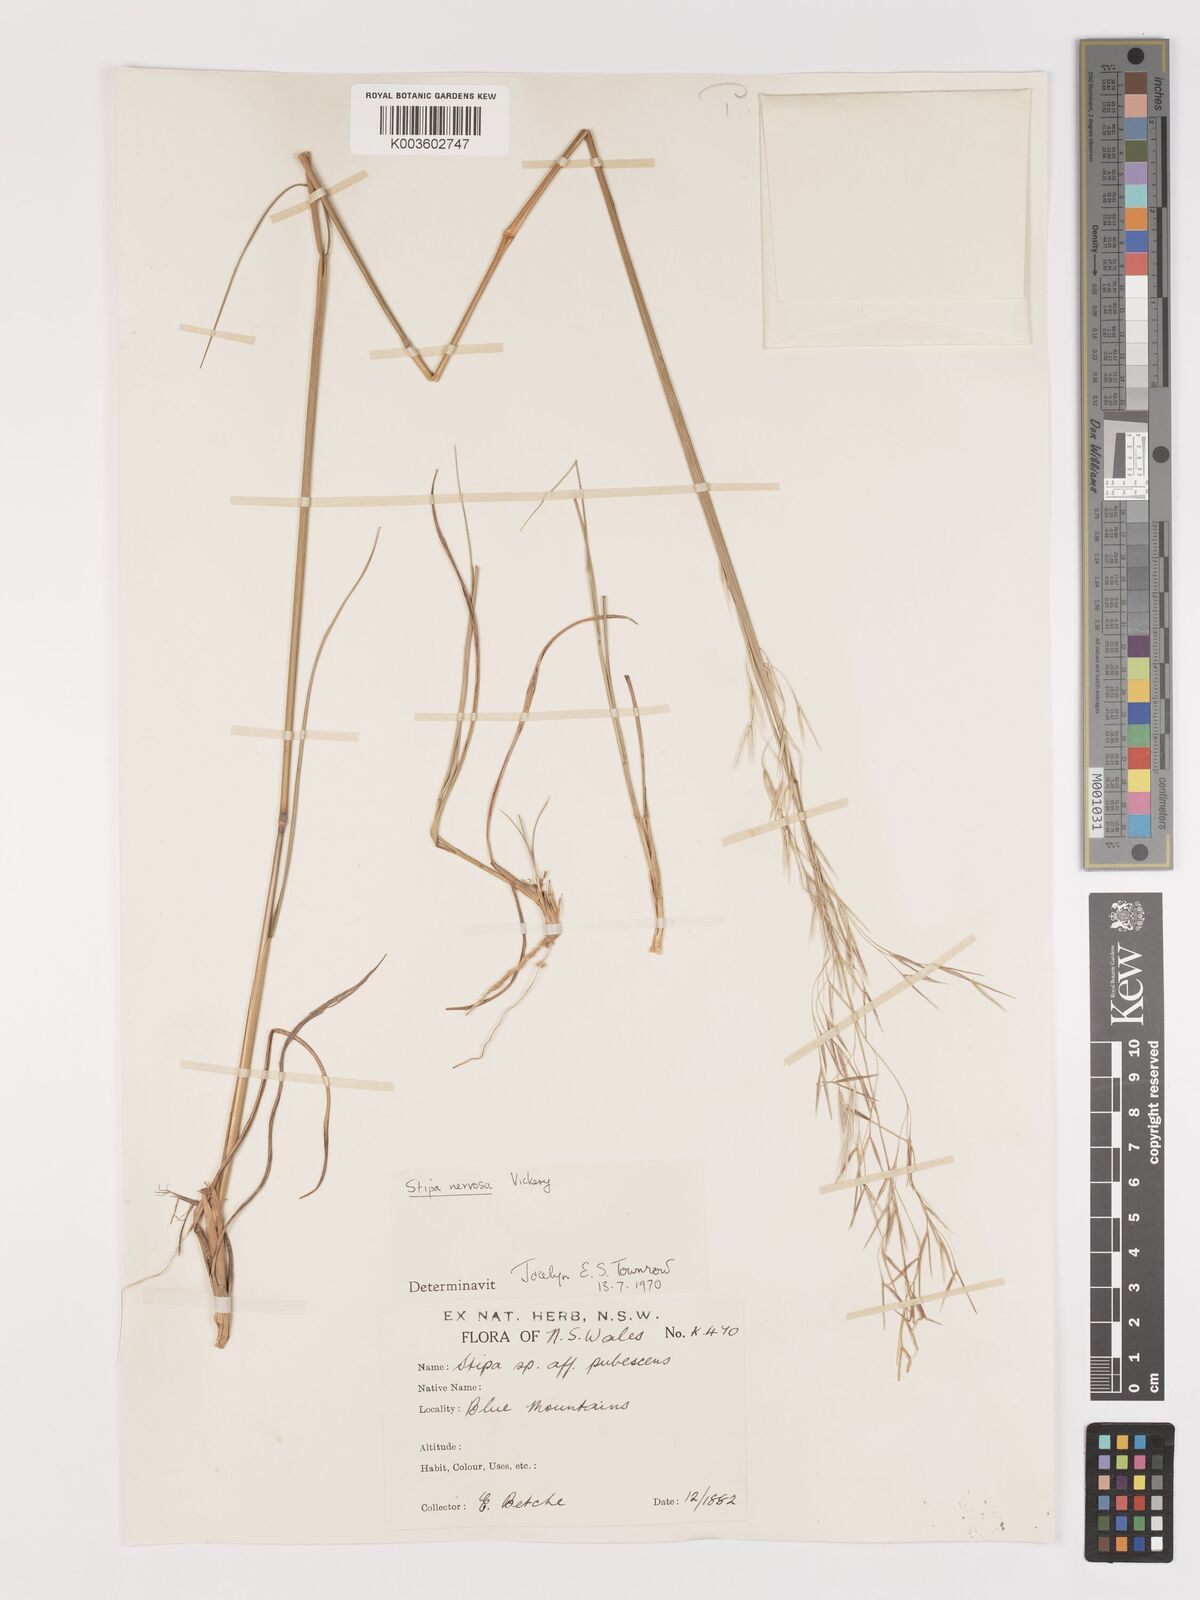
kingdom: Plantae
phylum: Tracheophyta
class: Liliopsida
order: Poales
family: Poaceae
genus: Austrostipa
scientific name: Austrostipa rudis
